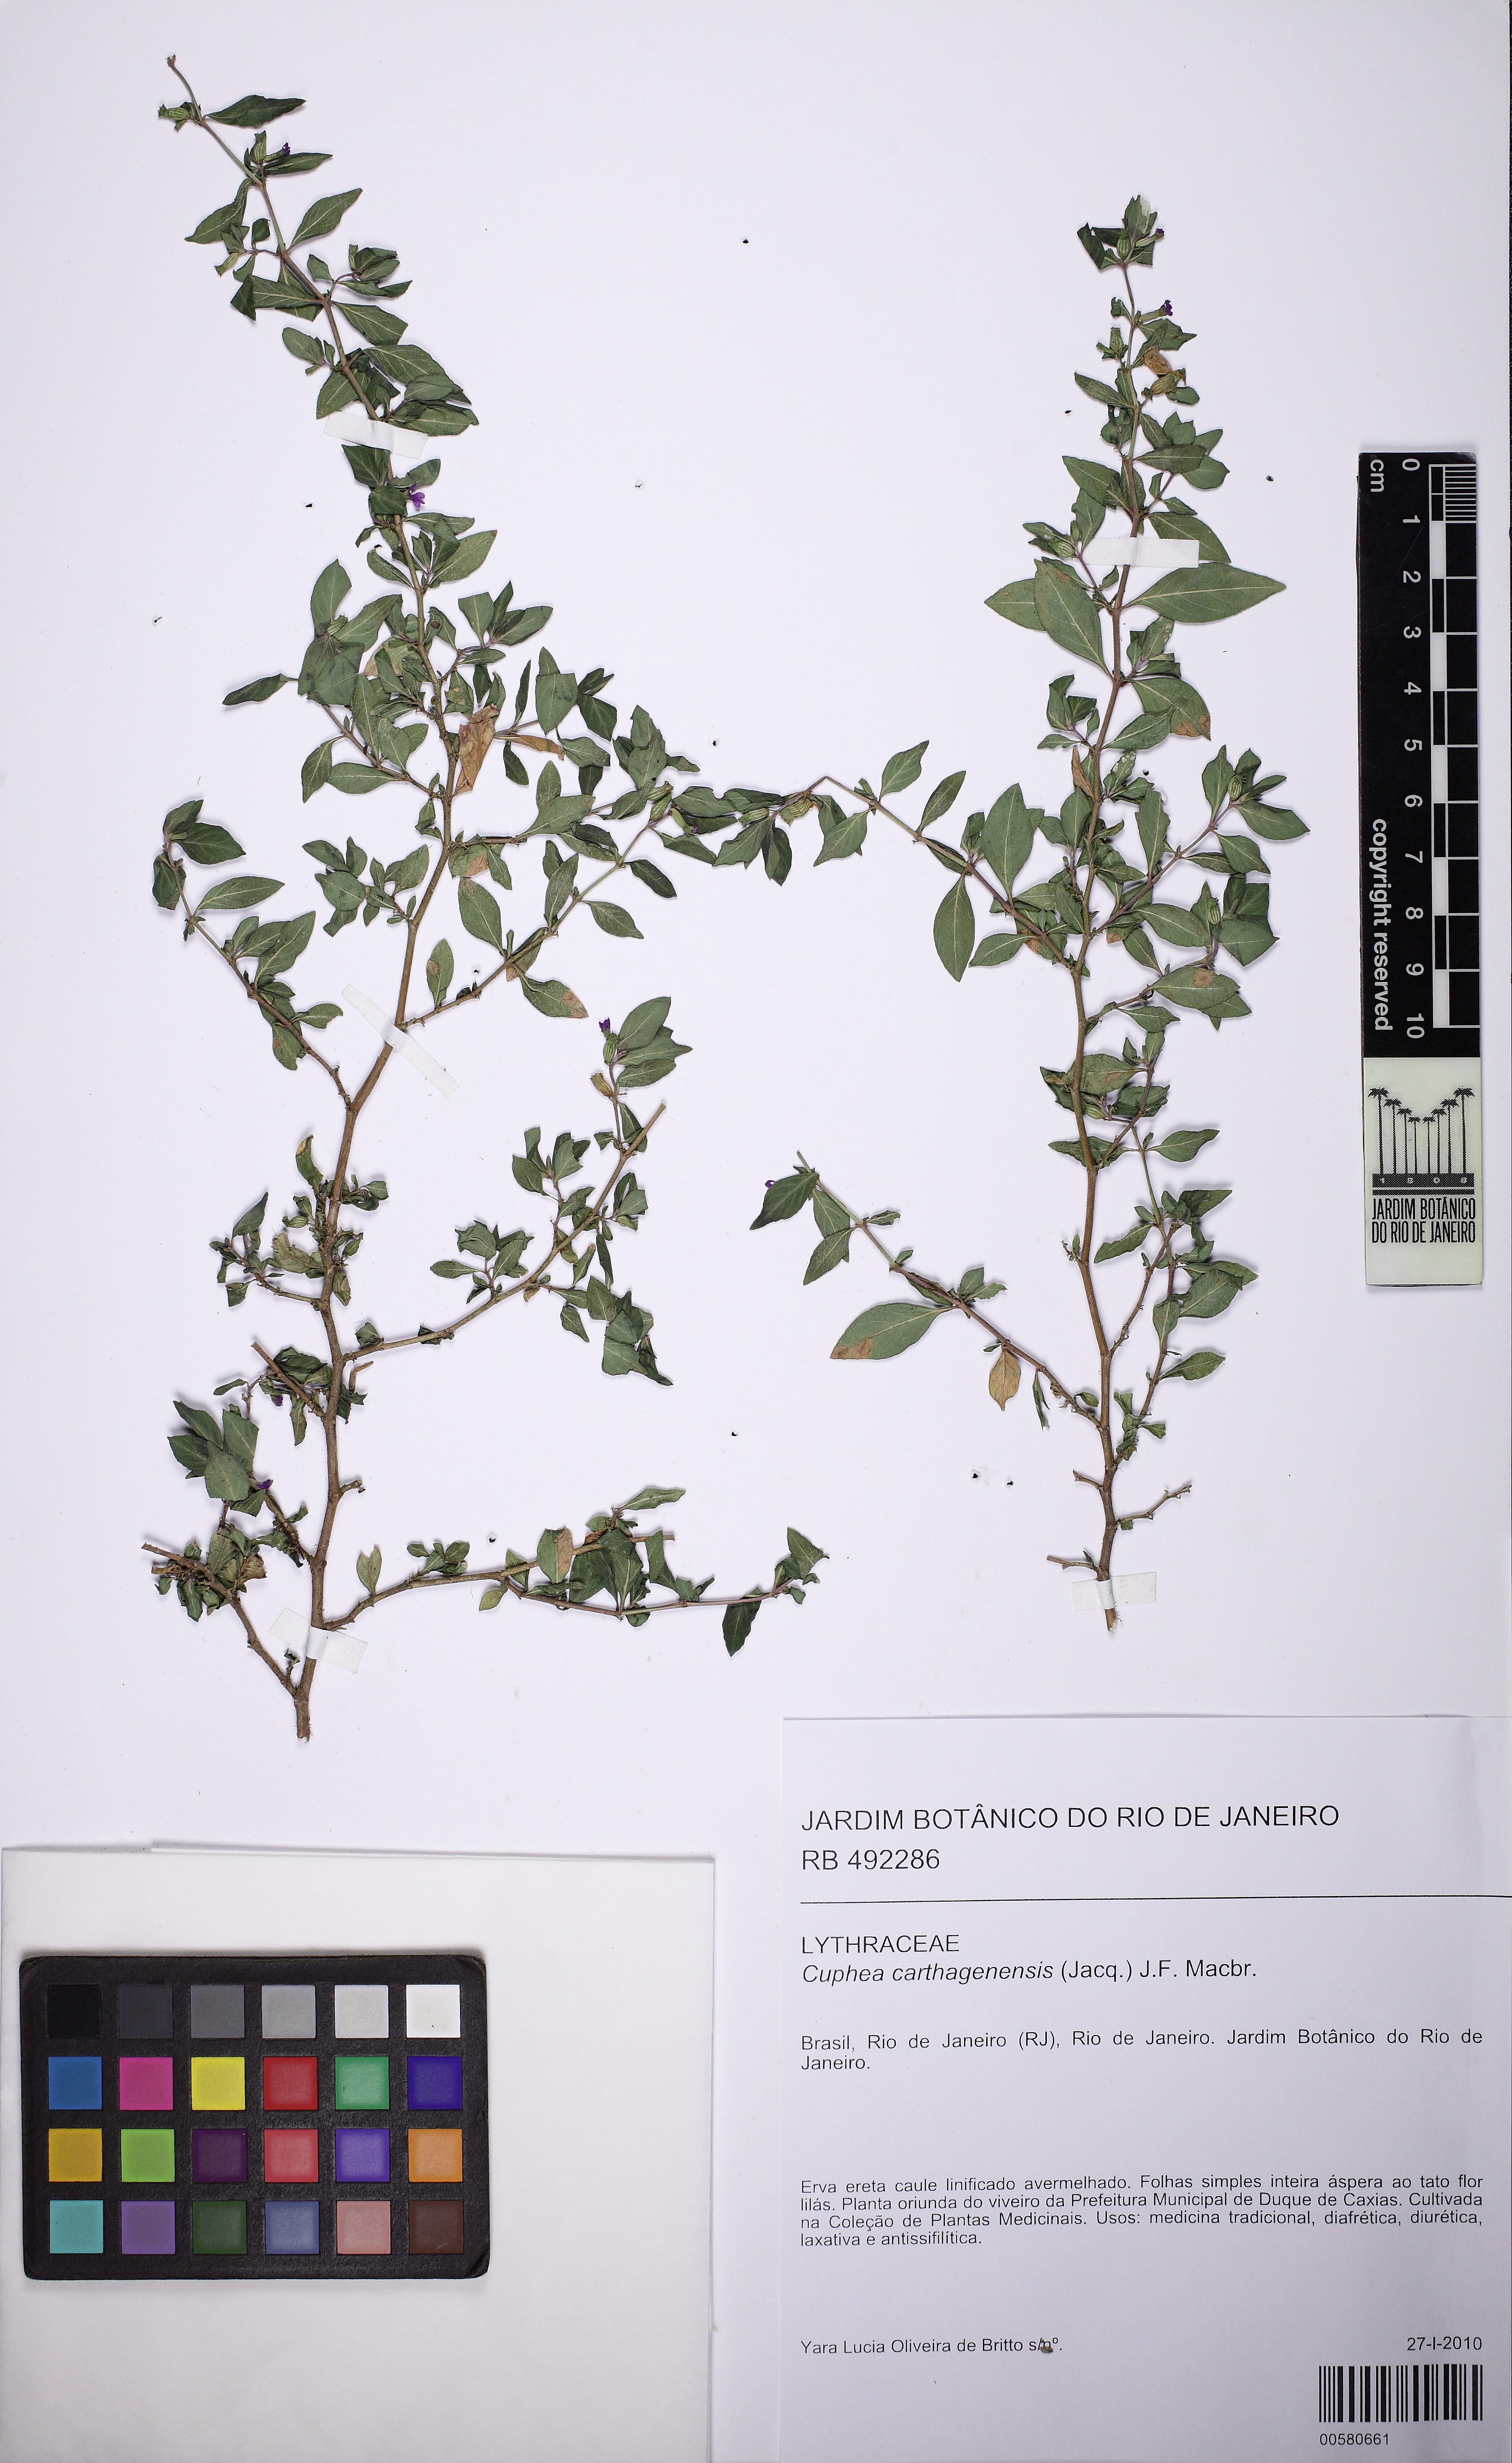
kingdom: Plantae
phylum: Tracheophyta
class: Magnoliopsida
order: Myrtales
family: Lythraceae
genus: Cuphea
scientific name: Cuphea strigulosa
